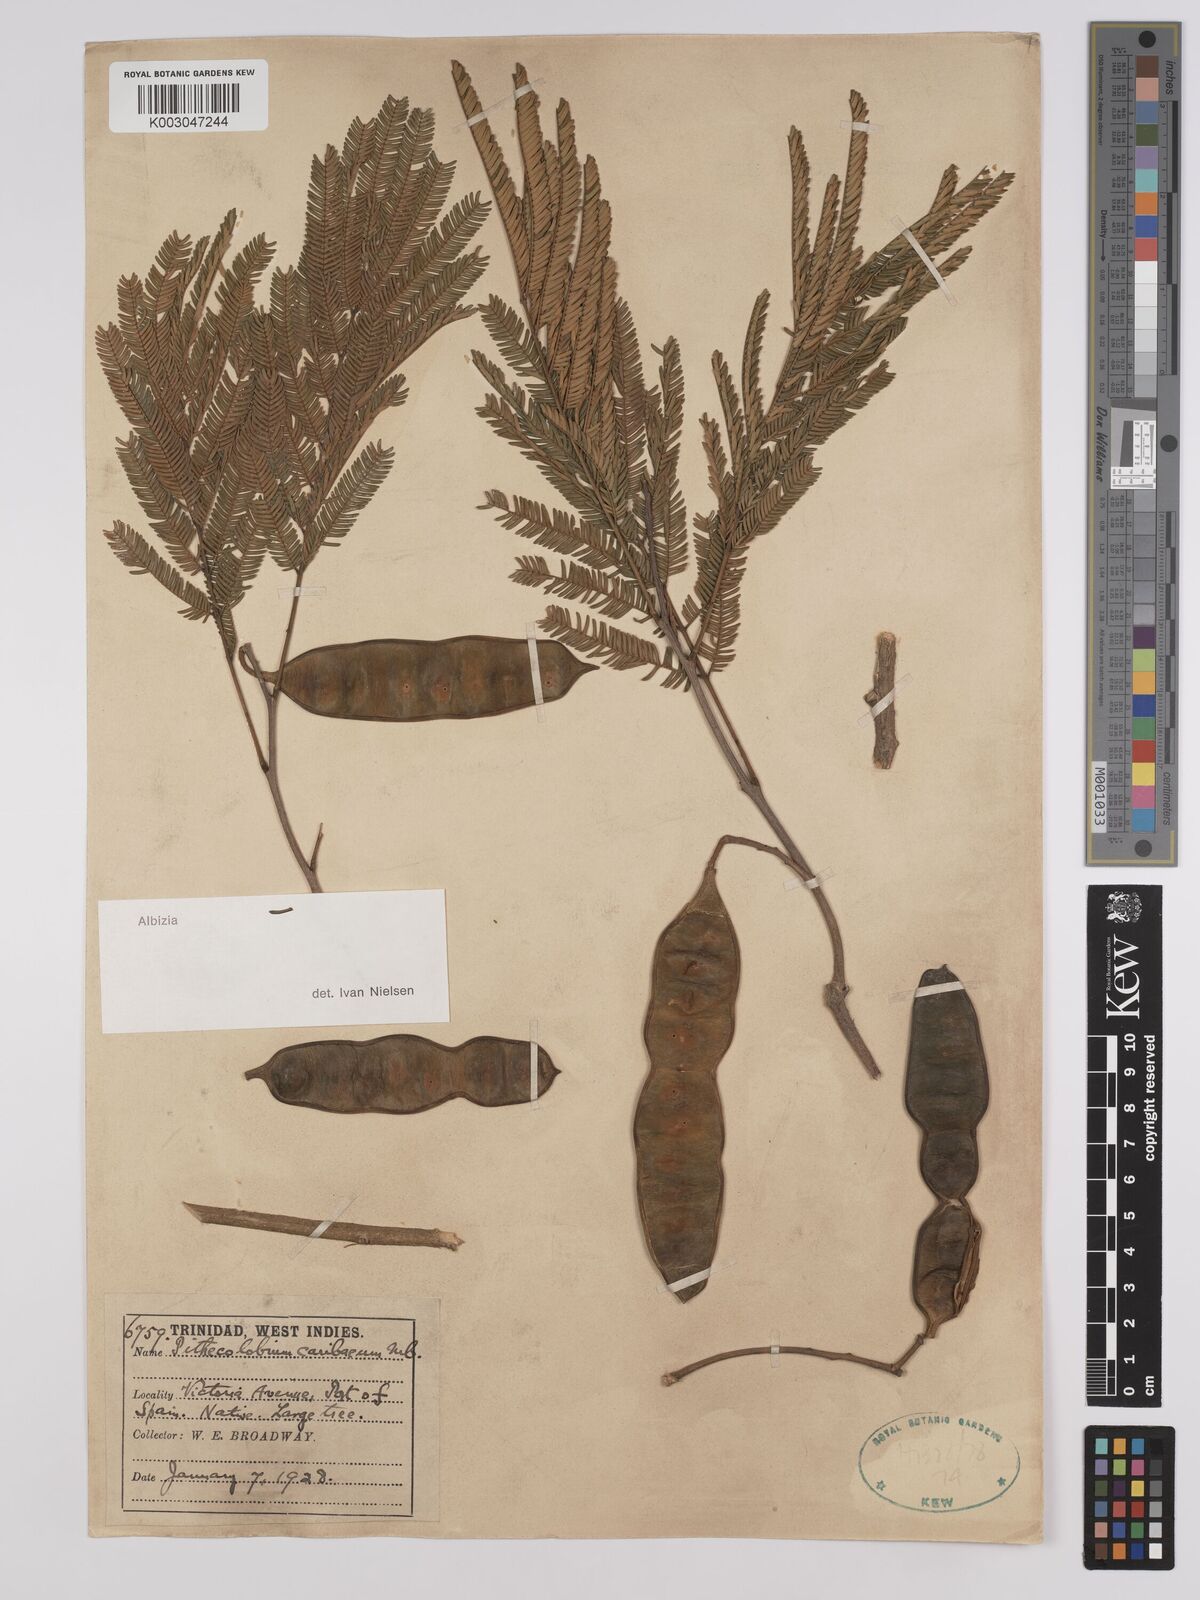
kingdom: Plantae
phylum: Tracheophyta
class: Magnoliopsida
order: Fabales
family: Fabaceae
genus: Albizia
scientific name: Albizia niopoides
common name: Silk tree
